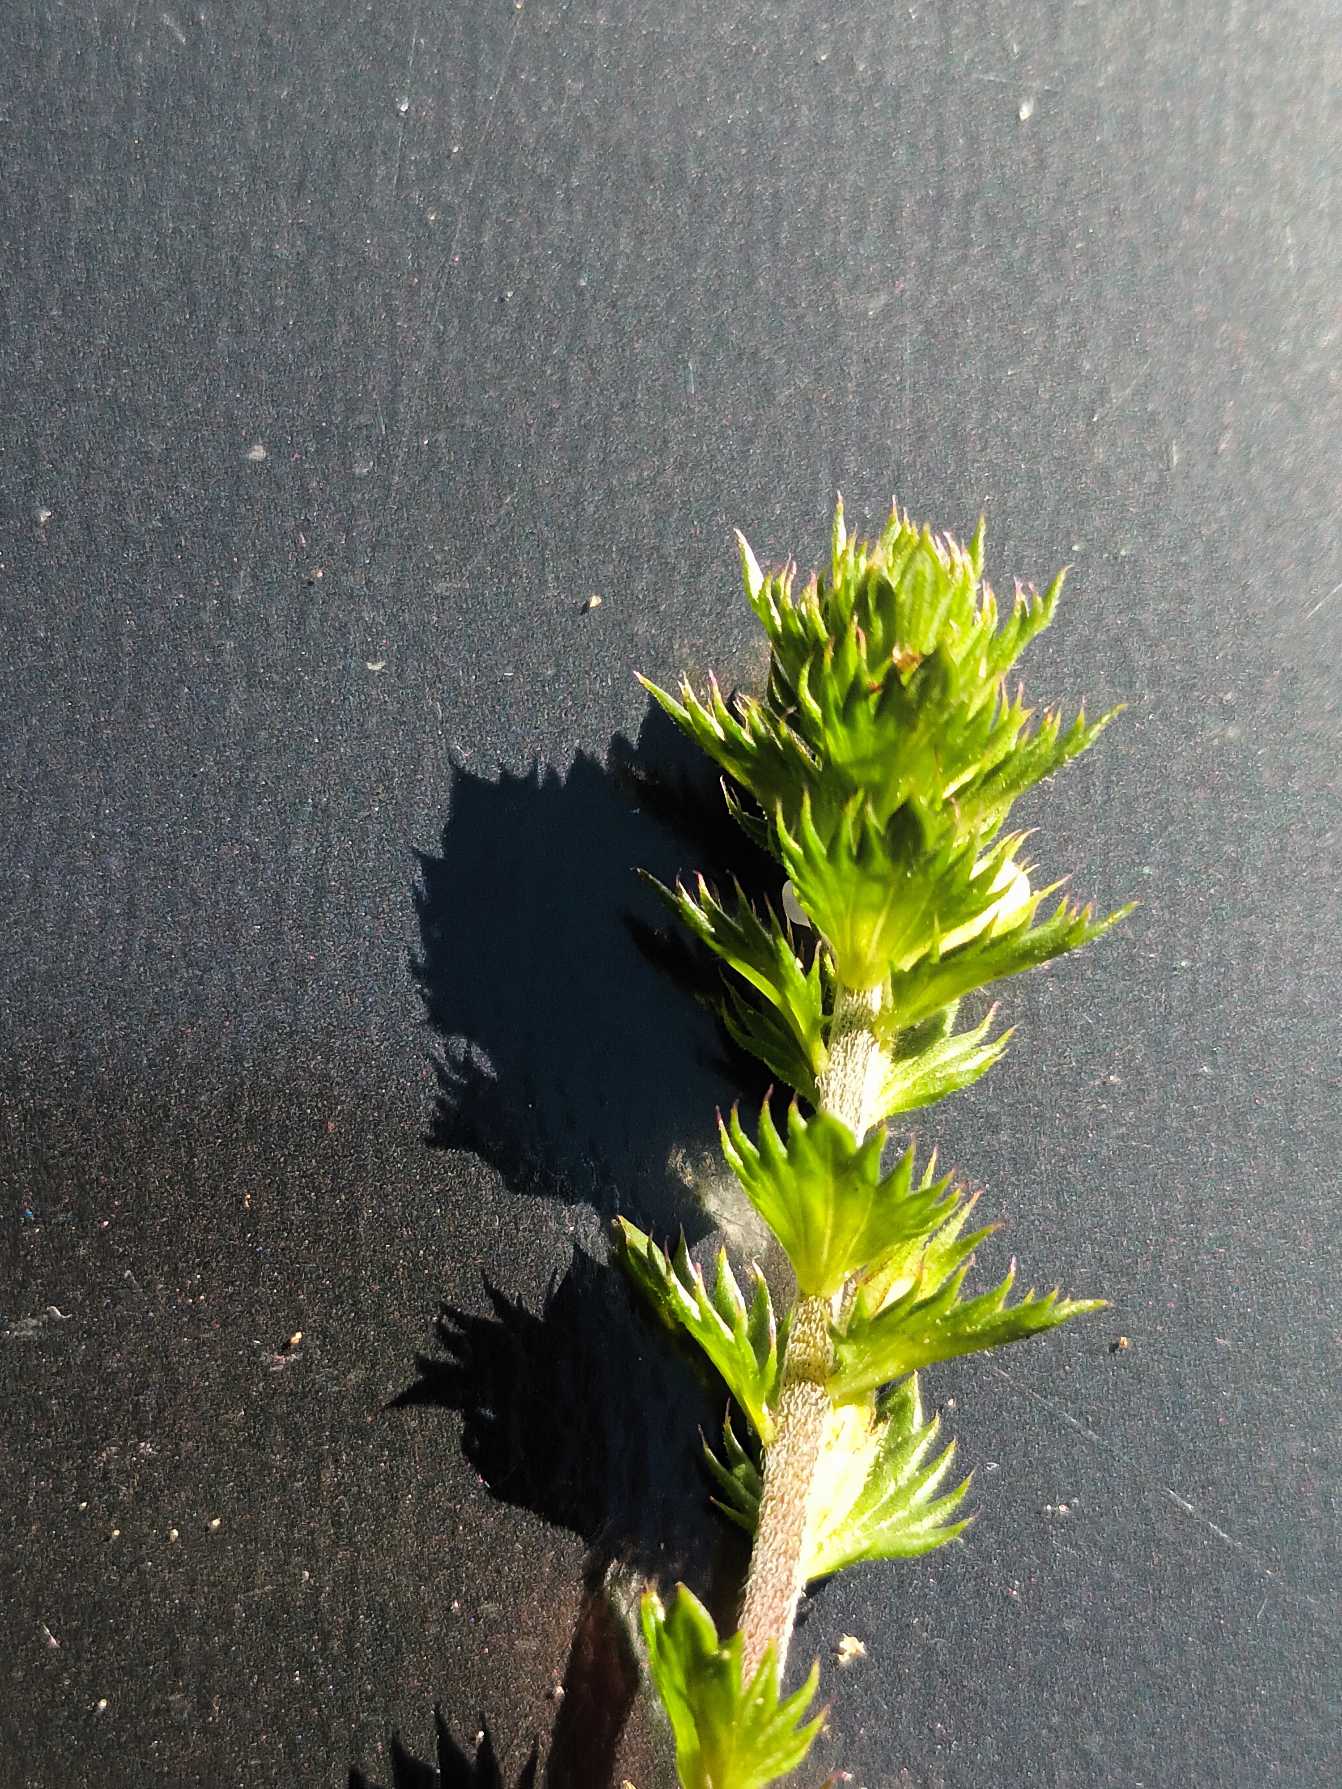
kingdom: Plantae
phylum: Tracheophyta
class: Magnoliopsida
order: Lamiales
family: Orobanchaceae
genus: Euphrasia
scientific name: Euphrasia stricta
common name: Spids øjentrøst
